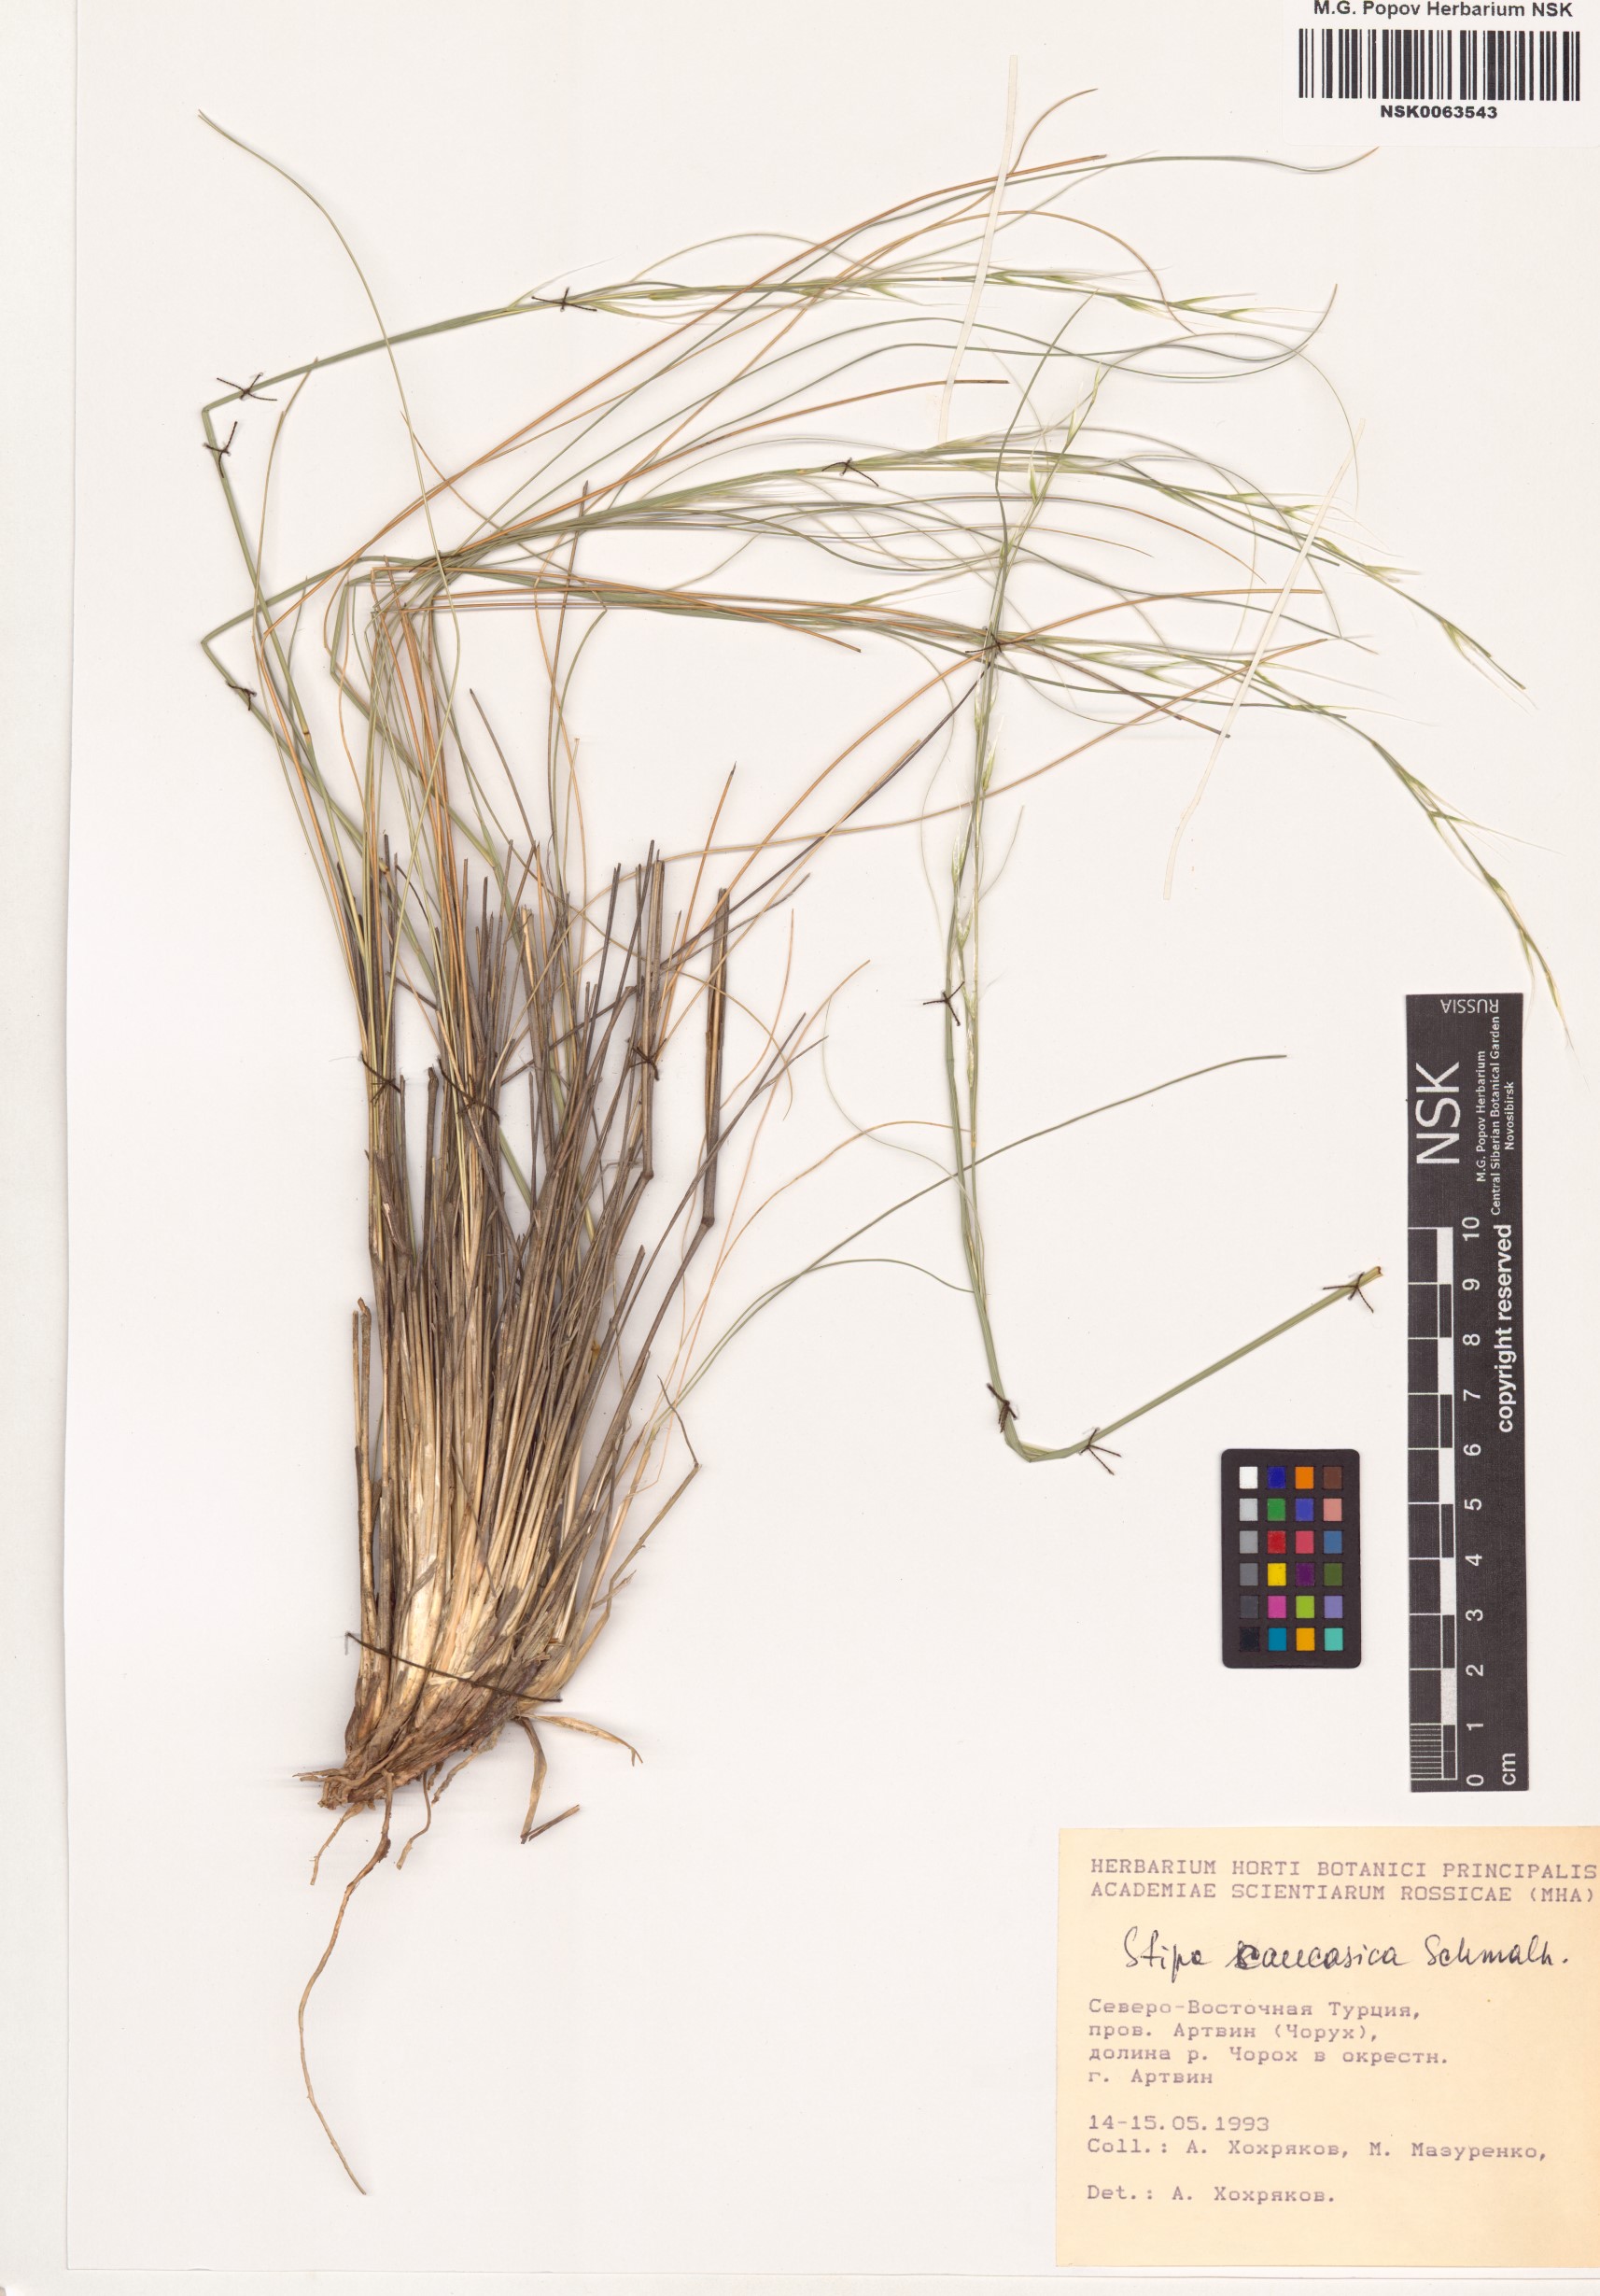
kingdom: Plantae
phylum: Tracheophyta
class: Liliopsida
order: Poales
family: Poaceae
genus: Stipa
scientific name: Stipa caucasica
